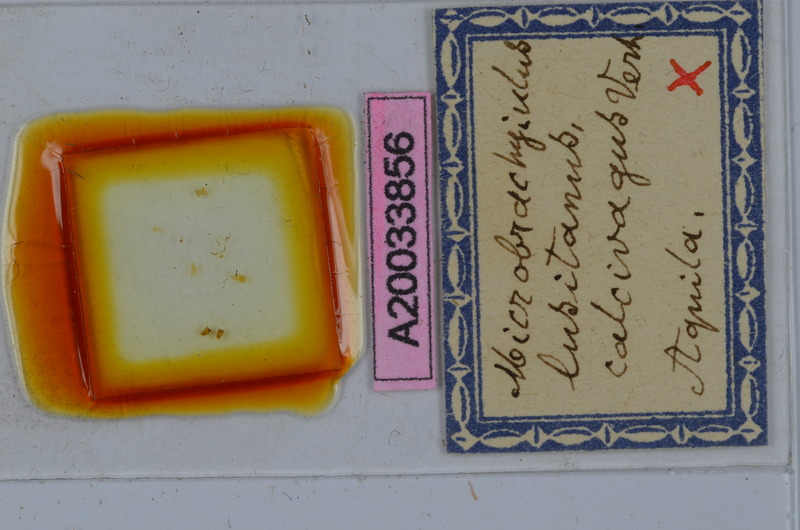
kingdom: Animalia
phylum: Arthropoda
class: Diplopoda
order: Julida
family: Julidae
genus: Brachyiulus
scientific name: Brachyiulus lusitanus
